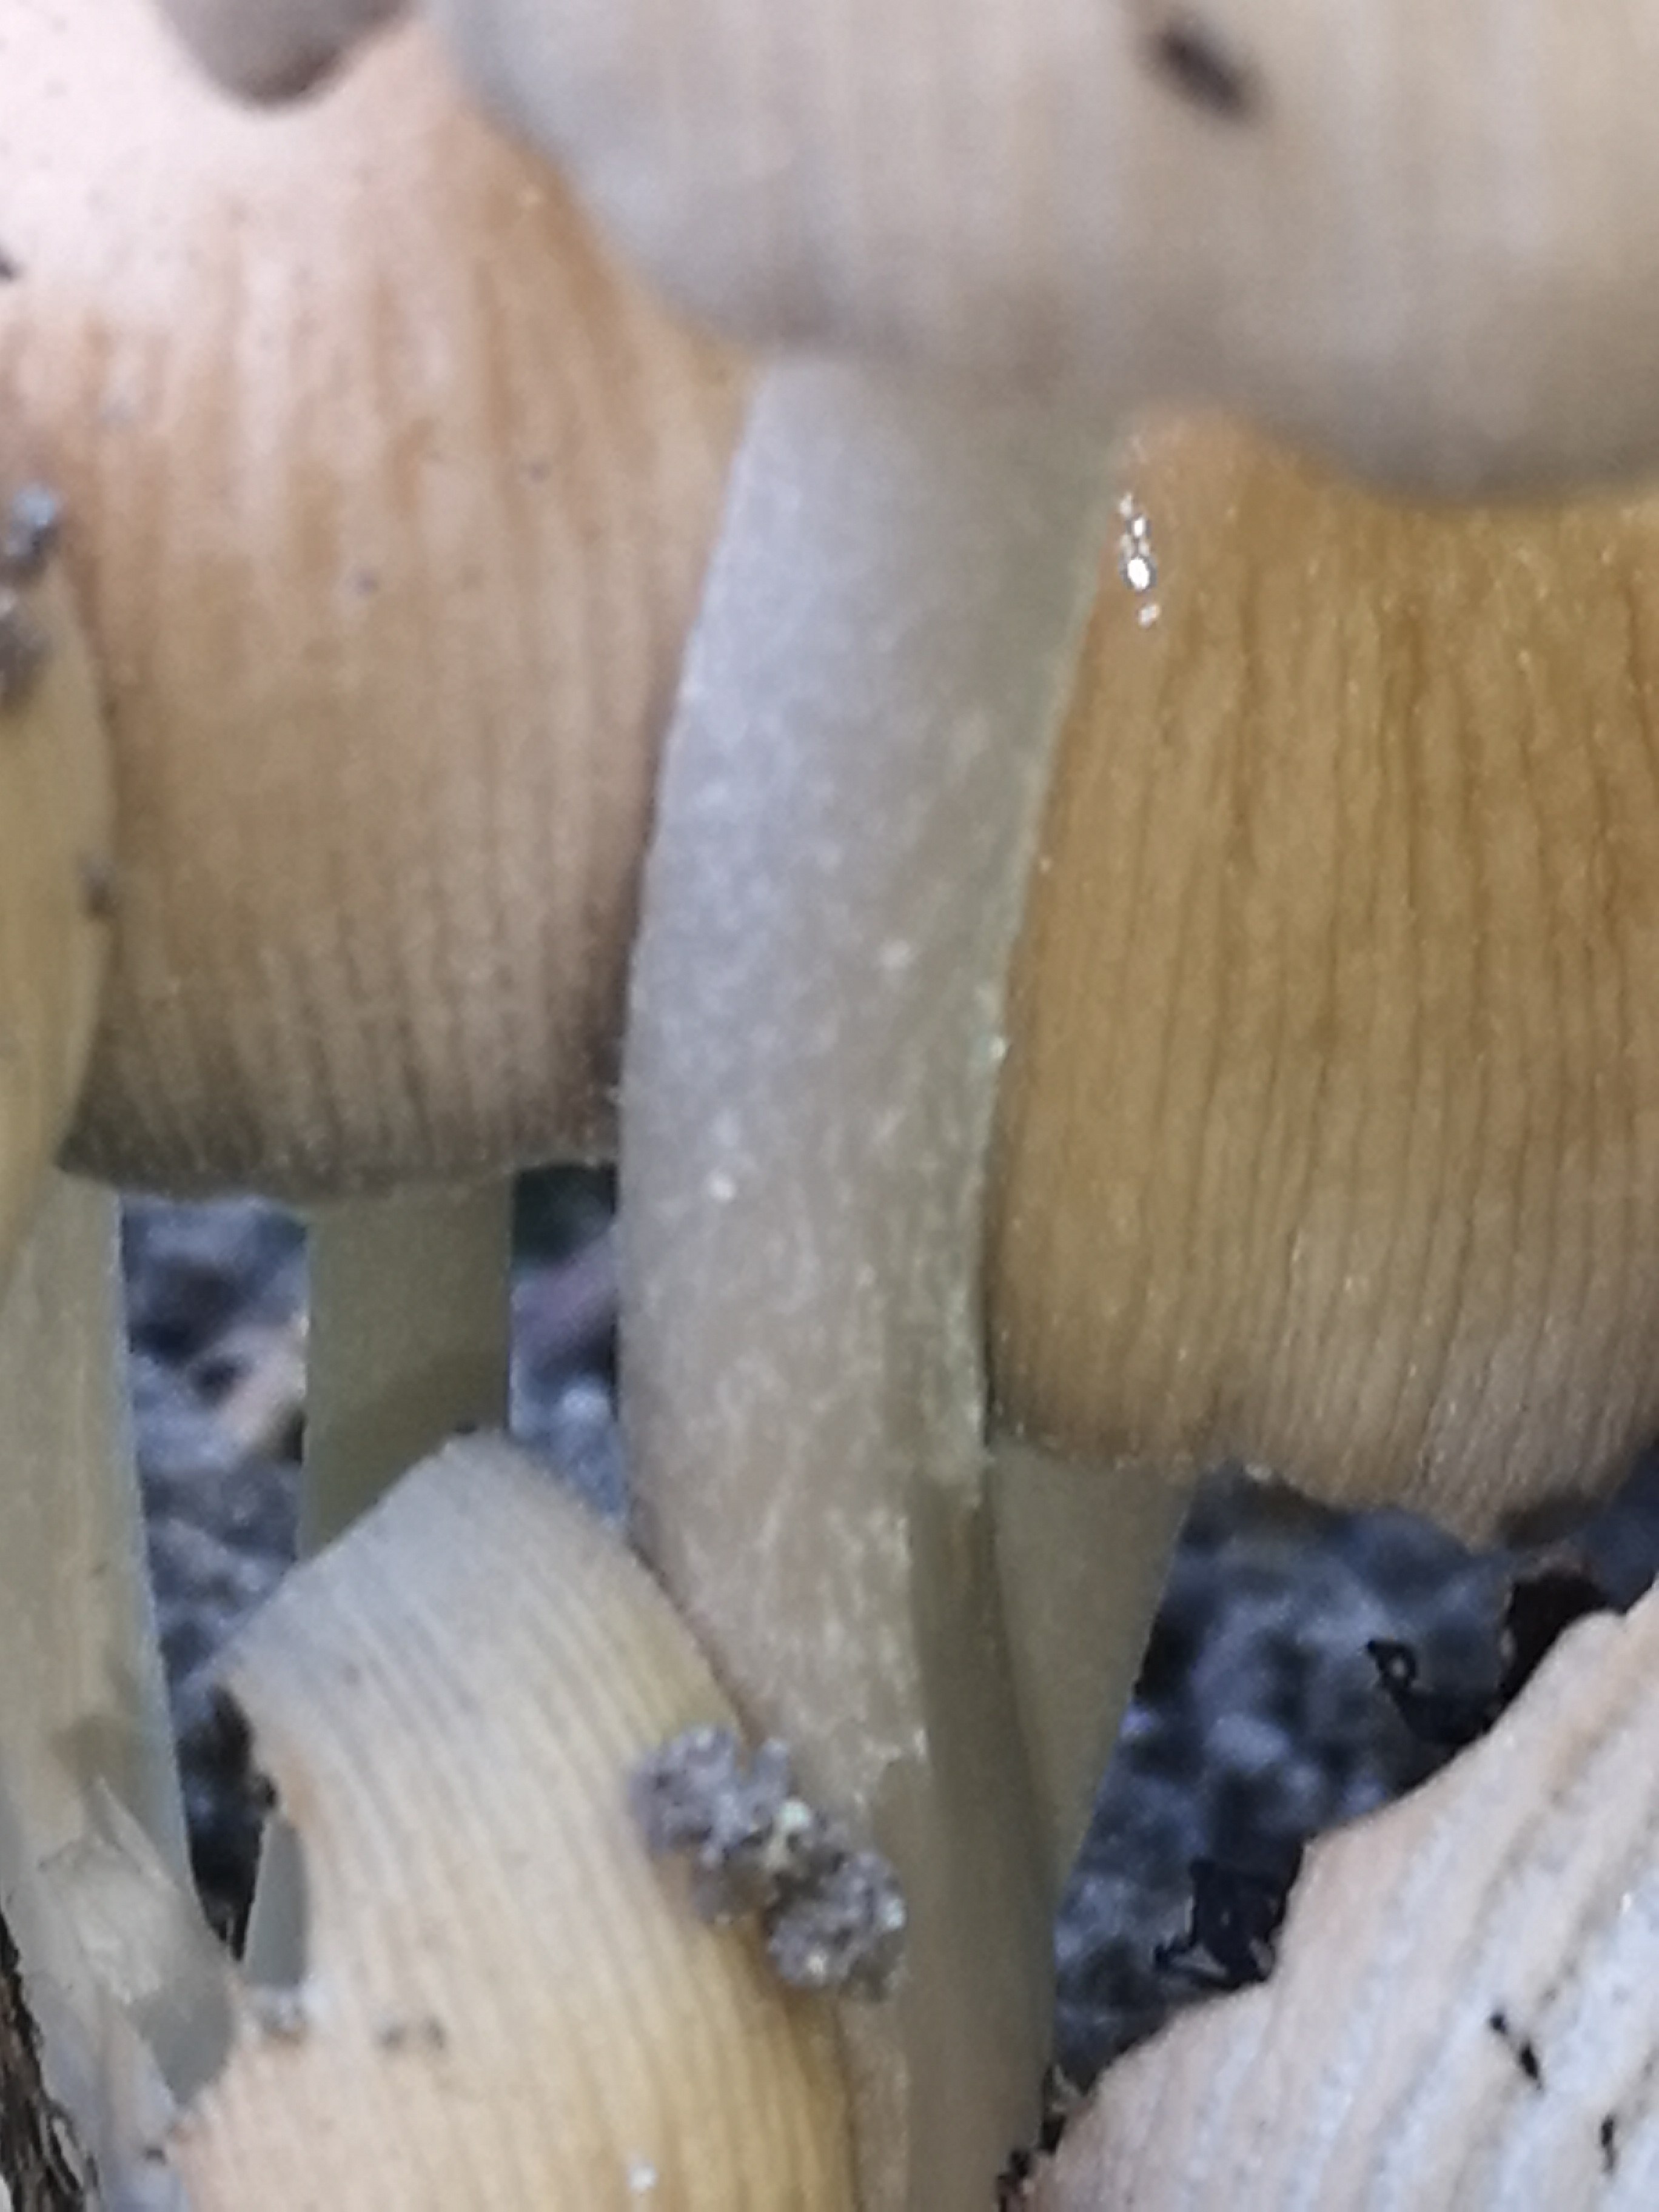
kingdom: Fungi
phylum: Basidiomycota
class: Agaricomycetes
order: Agaricales
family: Psathyrellaceae
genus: Coprinellus
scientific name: Coprinellus micaceus
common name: glimmer-blækhat
